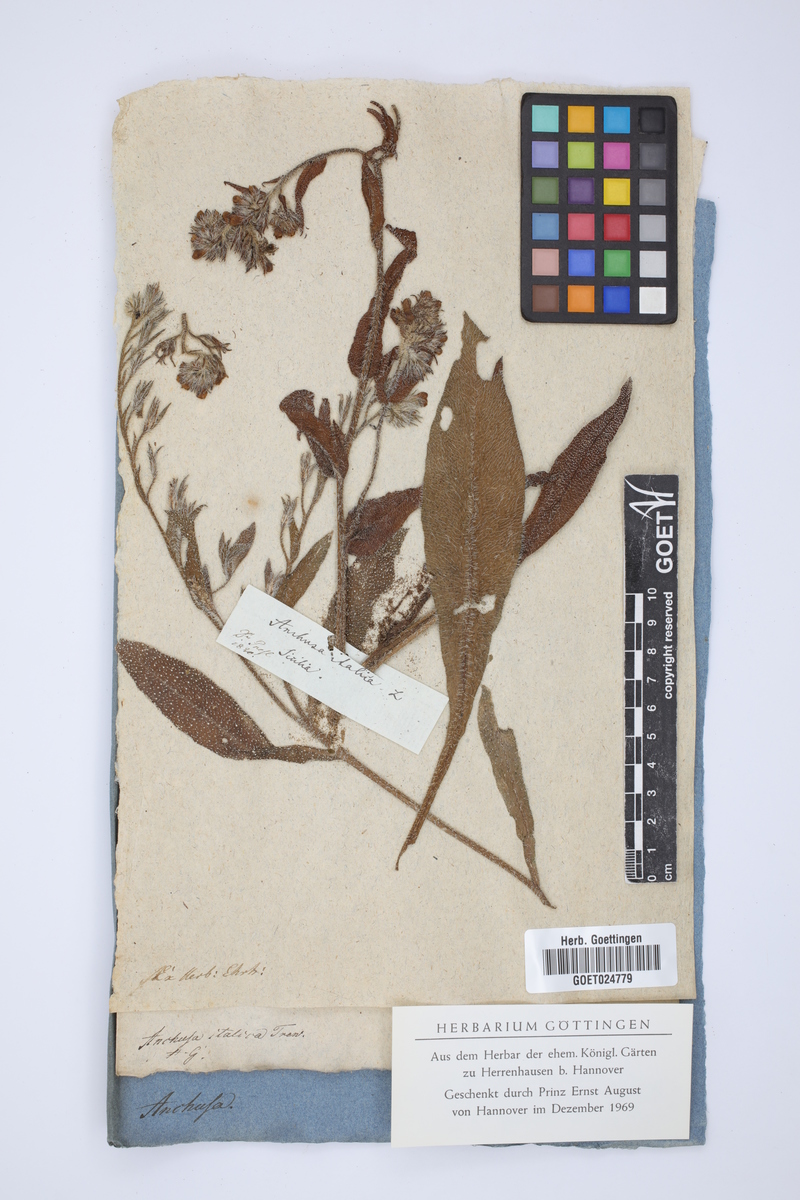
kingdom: Plantae
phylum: Tracheophyta
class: Magnoliopsida
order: Boraginales
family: Boraginaceae
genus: Anchusa
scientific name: Anchusa azurea
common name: Garden anchusa
